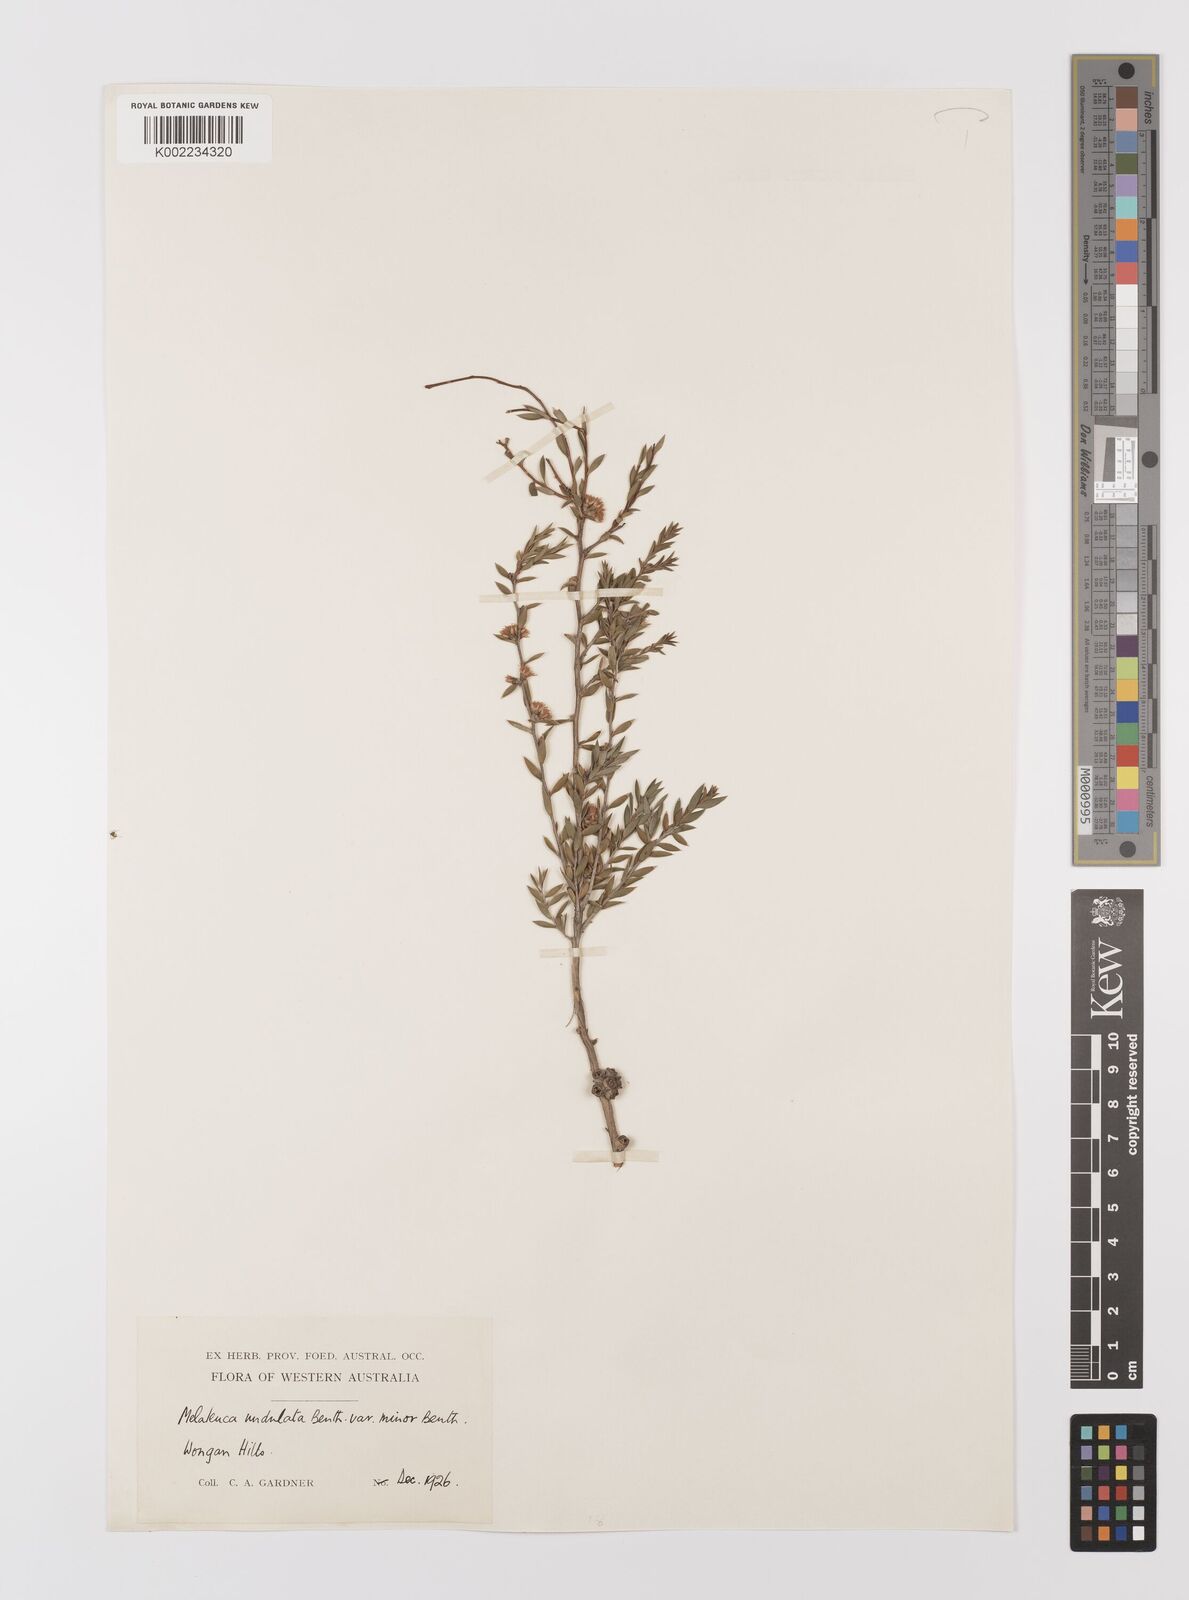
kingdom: Plantae
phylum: Tracheophyta
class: Magnoliopsida
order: Myrtales
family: Myrtaceae
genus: Melaleuca
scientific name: Melaleuca undulata
